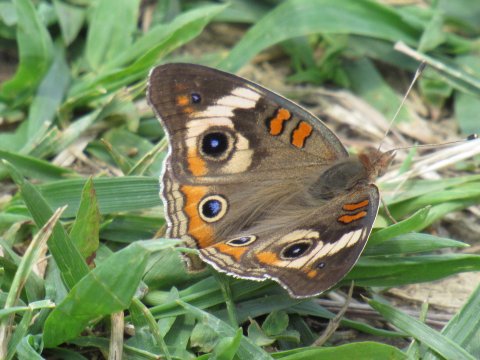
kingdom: Animalia
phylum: Arthropoda
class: Insecta
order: Lepidoptera
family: Nymphalidae
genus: Junonia
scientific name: Junonia coenia
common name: Common Buckeye
